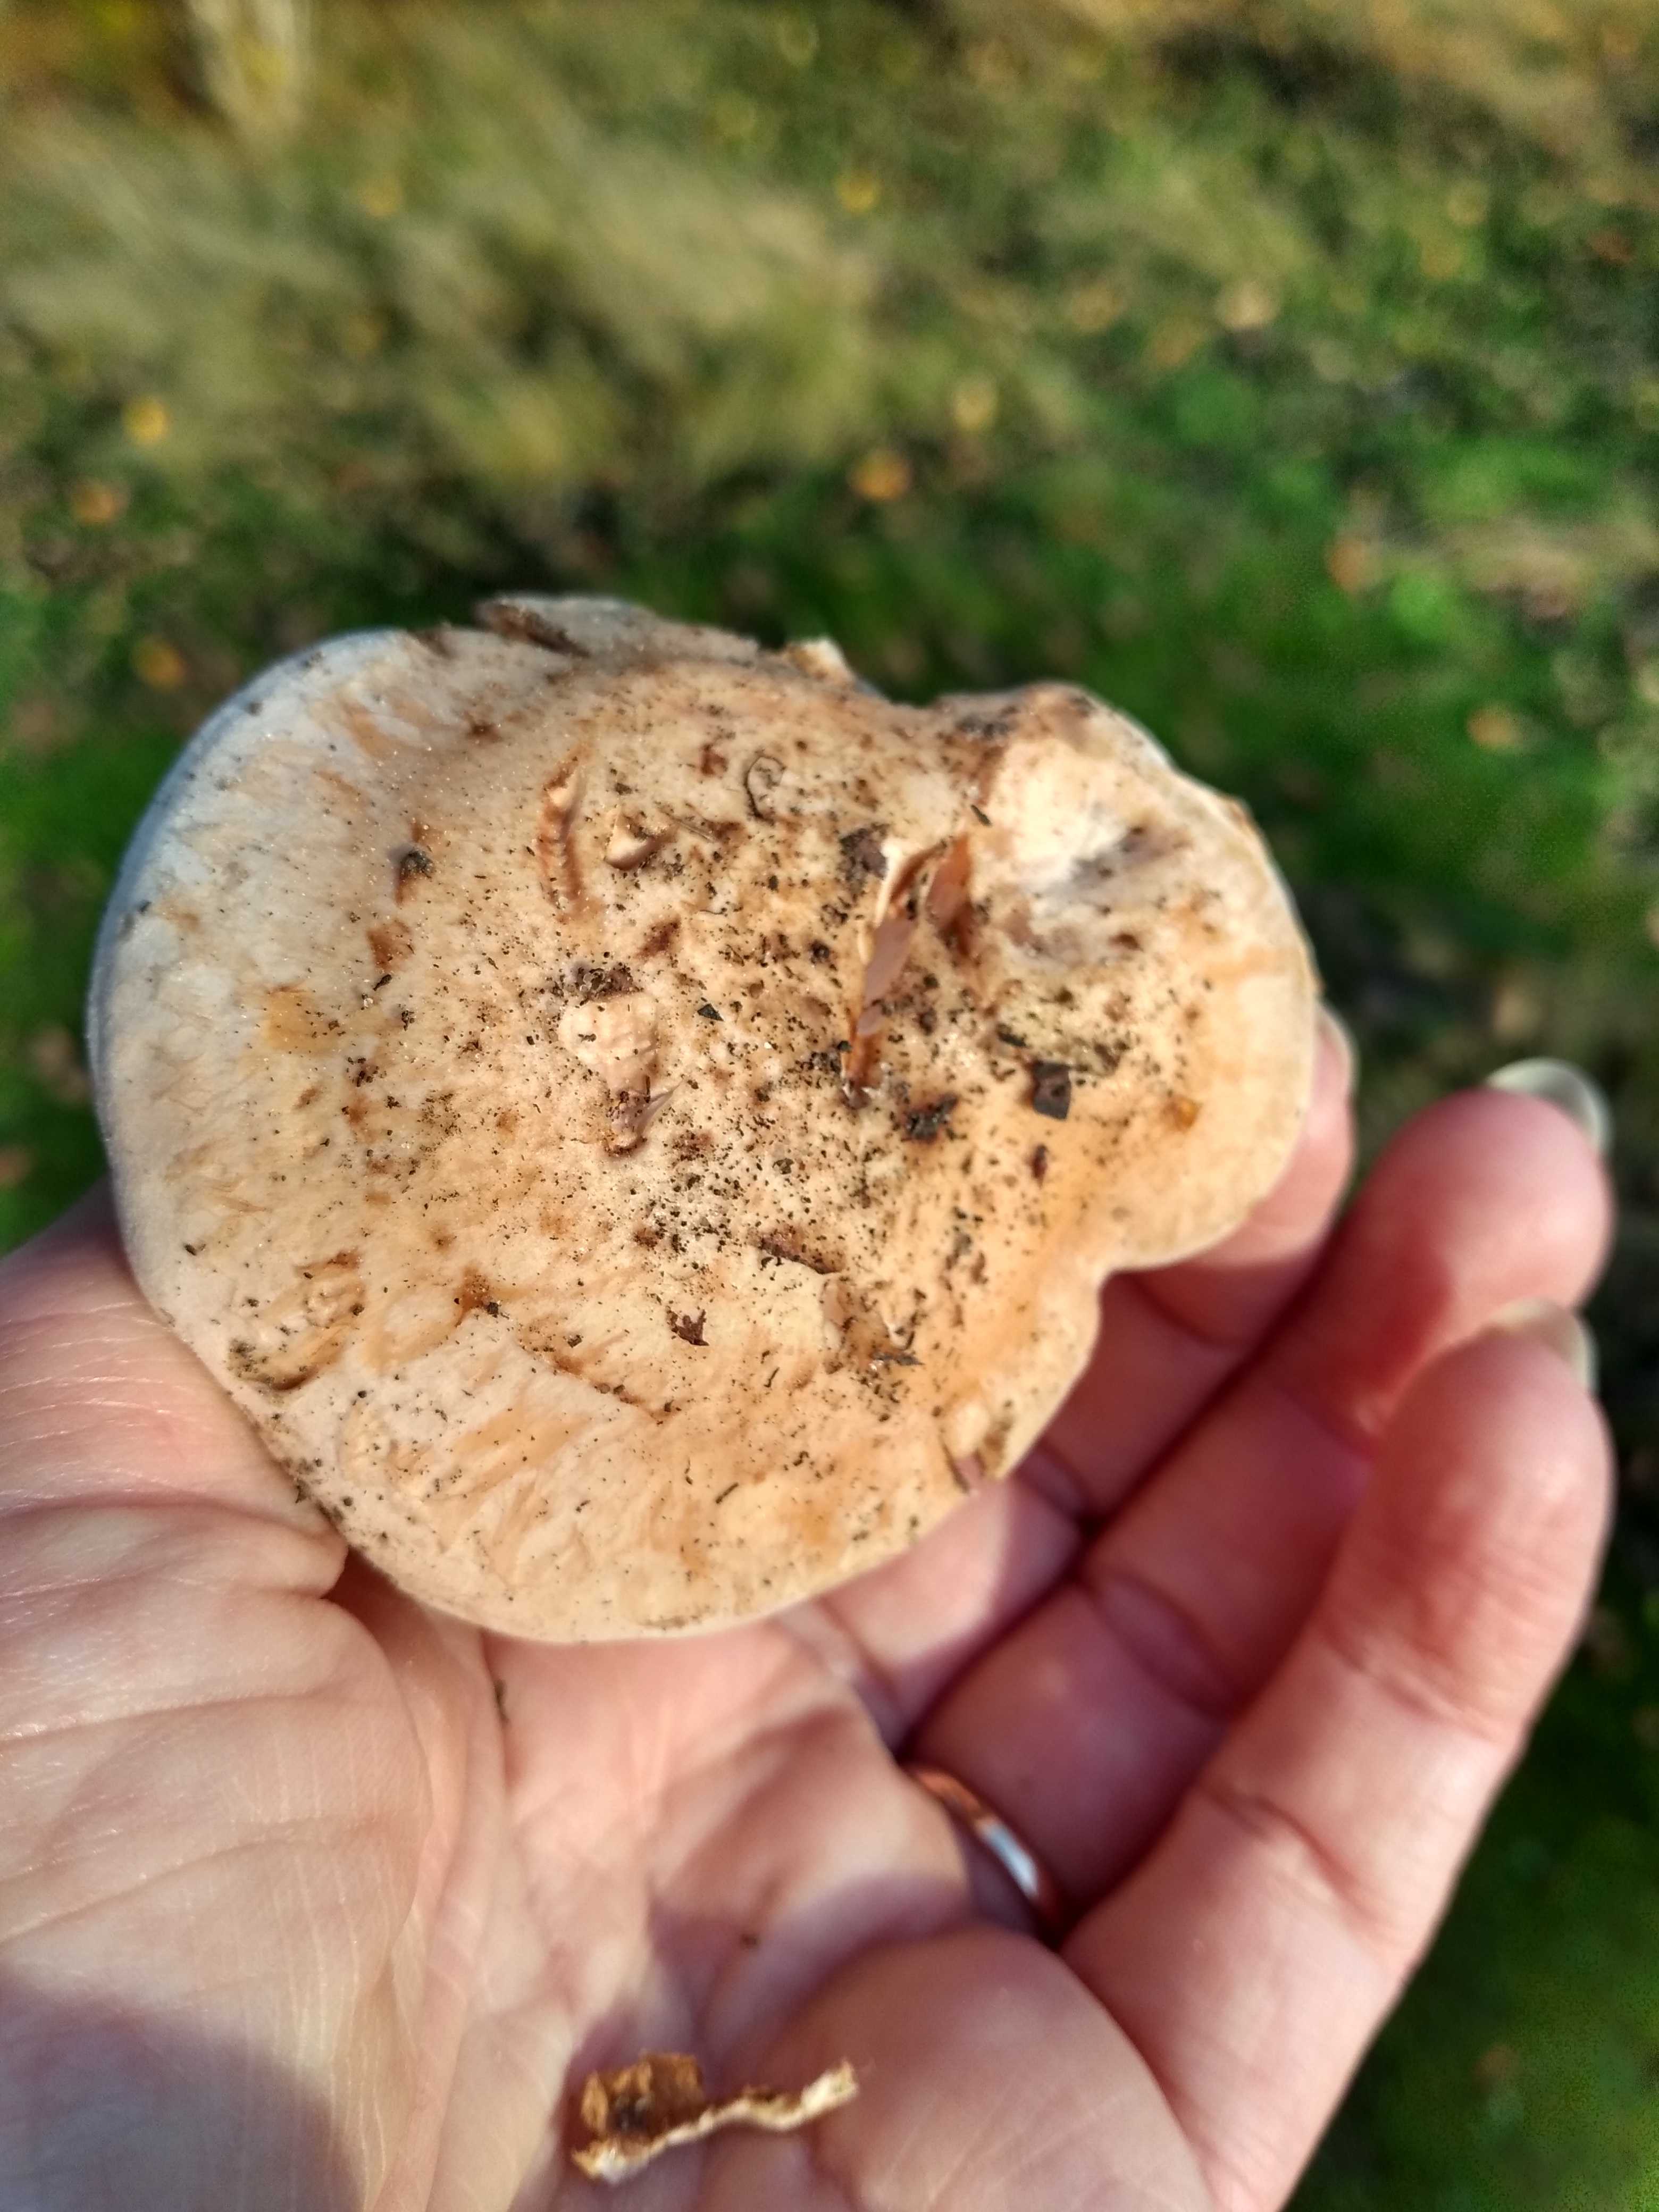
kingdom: Fungi
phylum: Basidiomycota
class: Agaricomycetes
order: Agaricales
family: Hymenogastraceae
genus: Hebeloma
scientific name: Hebeloma radicosum
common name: pælerods-tåreblad
